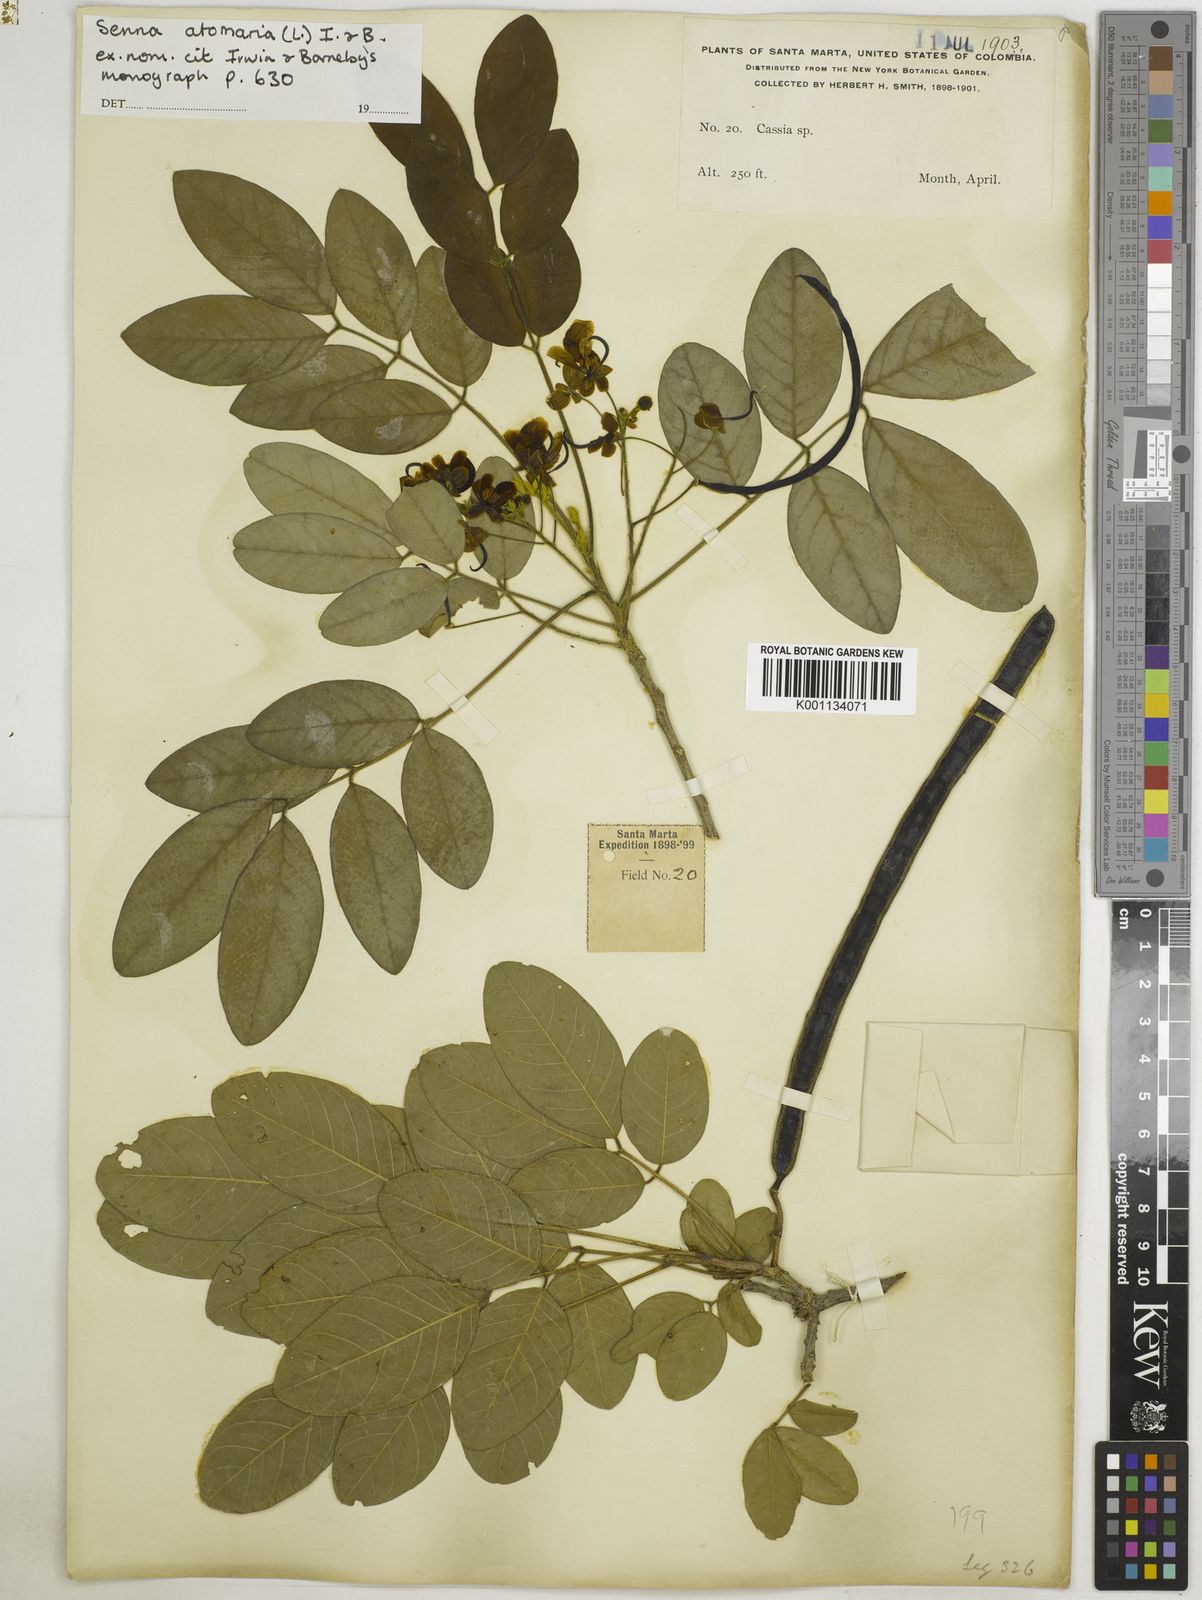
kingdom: Plantae
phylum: Tracheophyta
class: Magnoliopsida
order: Fabales
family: Fabaceae
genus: Senna
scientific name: Senna atomaria
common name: Flor de san jose
